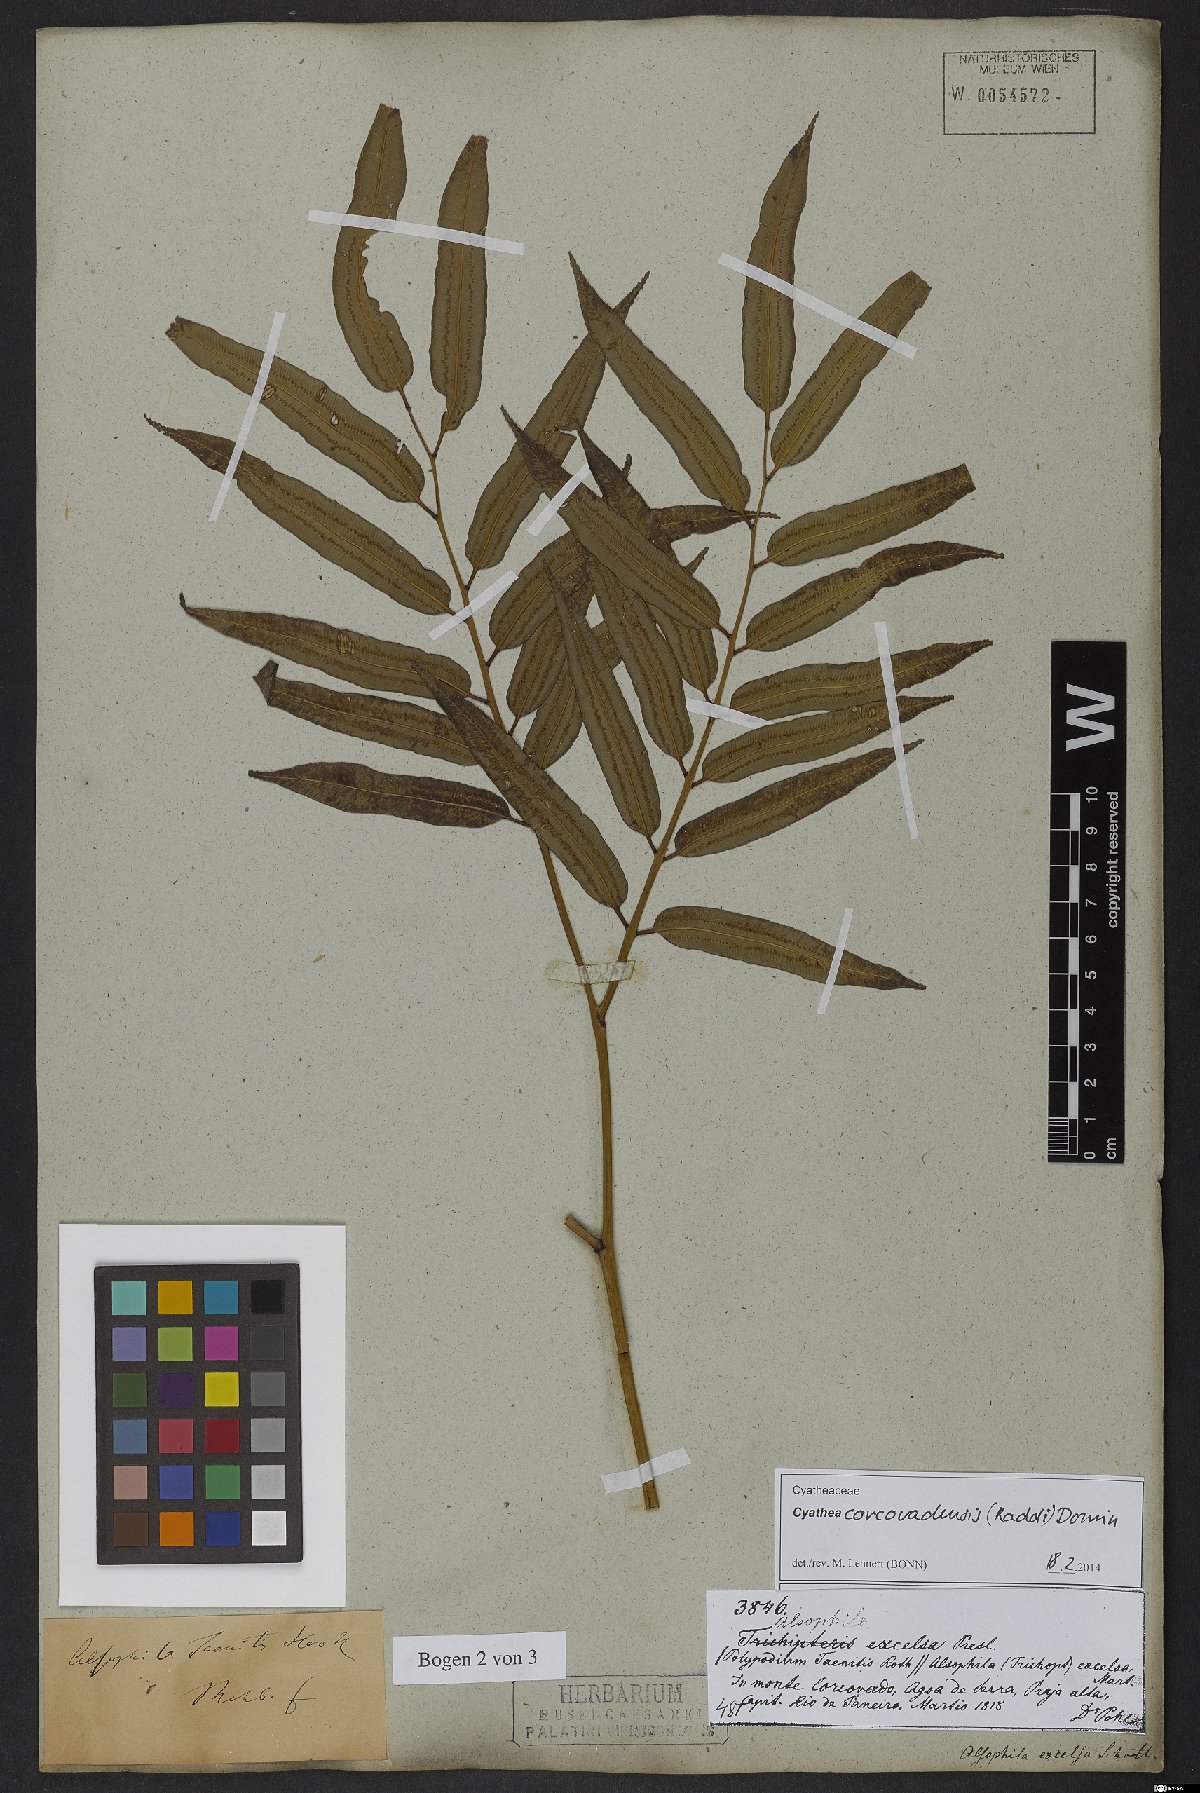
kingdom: Plantae
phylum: Tracheophyta
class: Polypodiopsida
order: Cyatheales
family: Cyatheaceae
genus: Cyathea
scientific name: Cyathea corcovadensis
